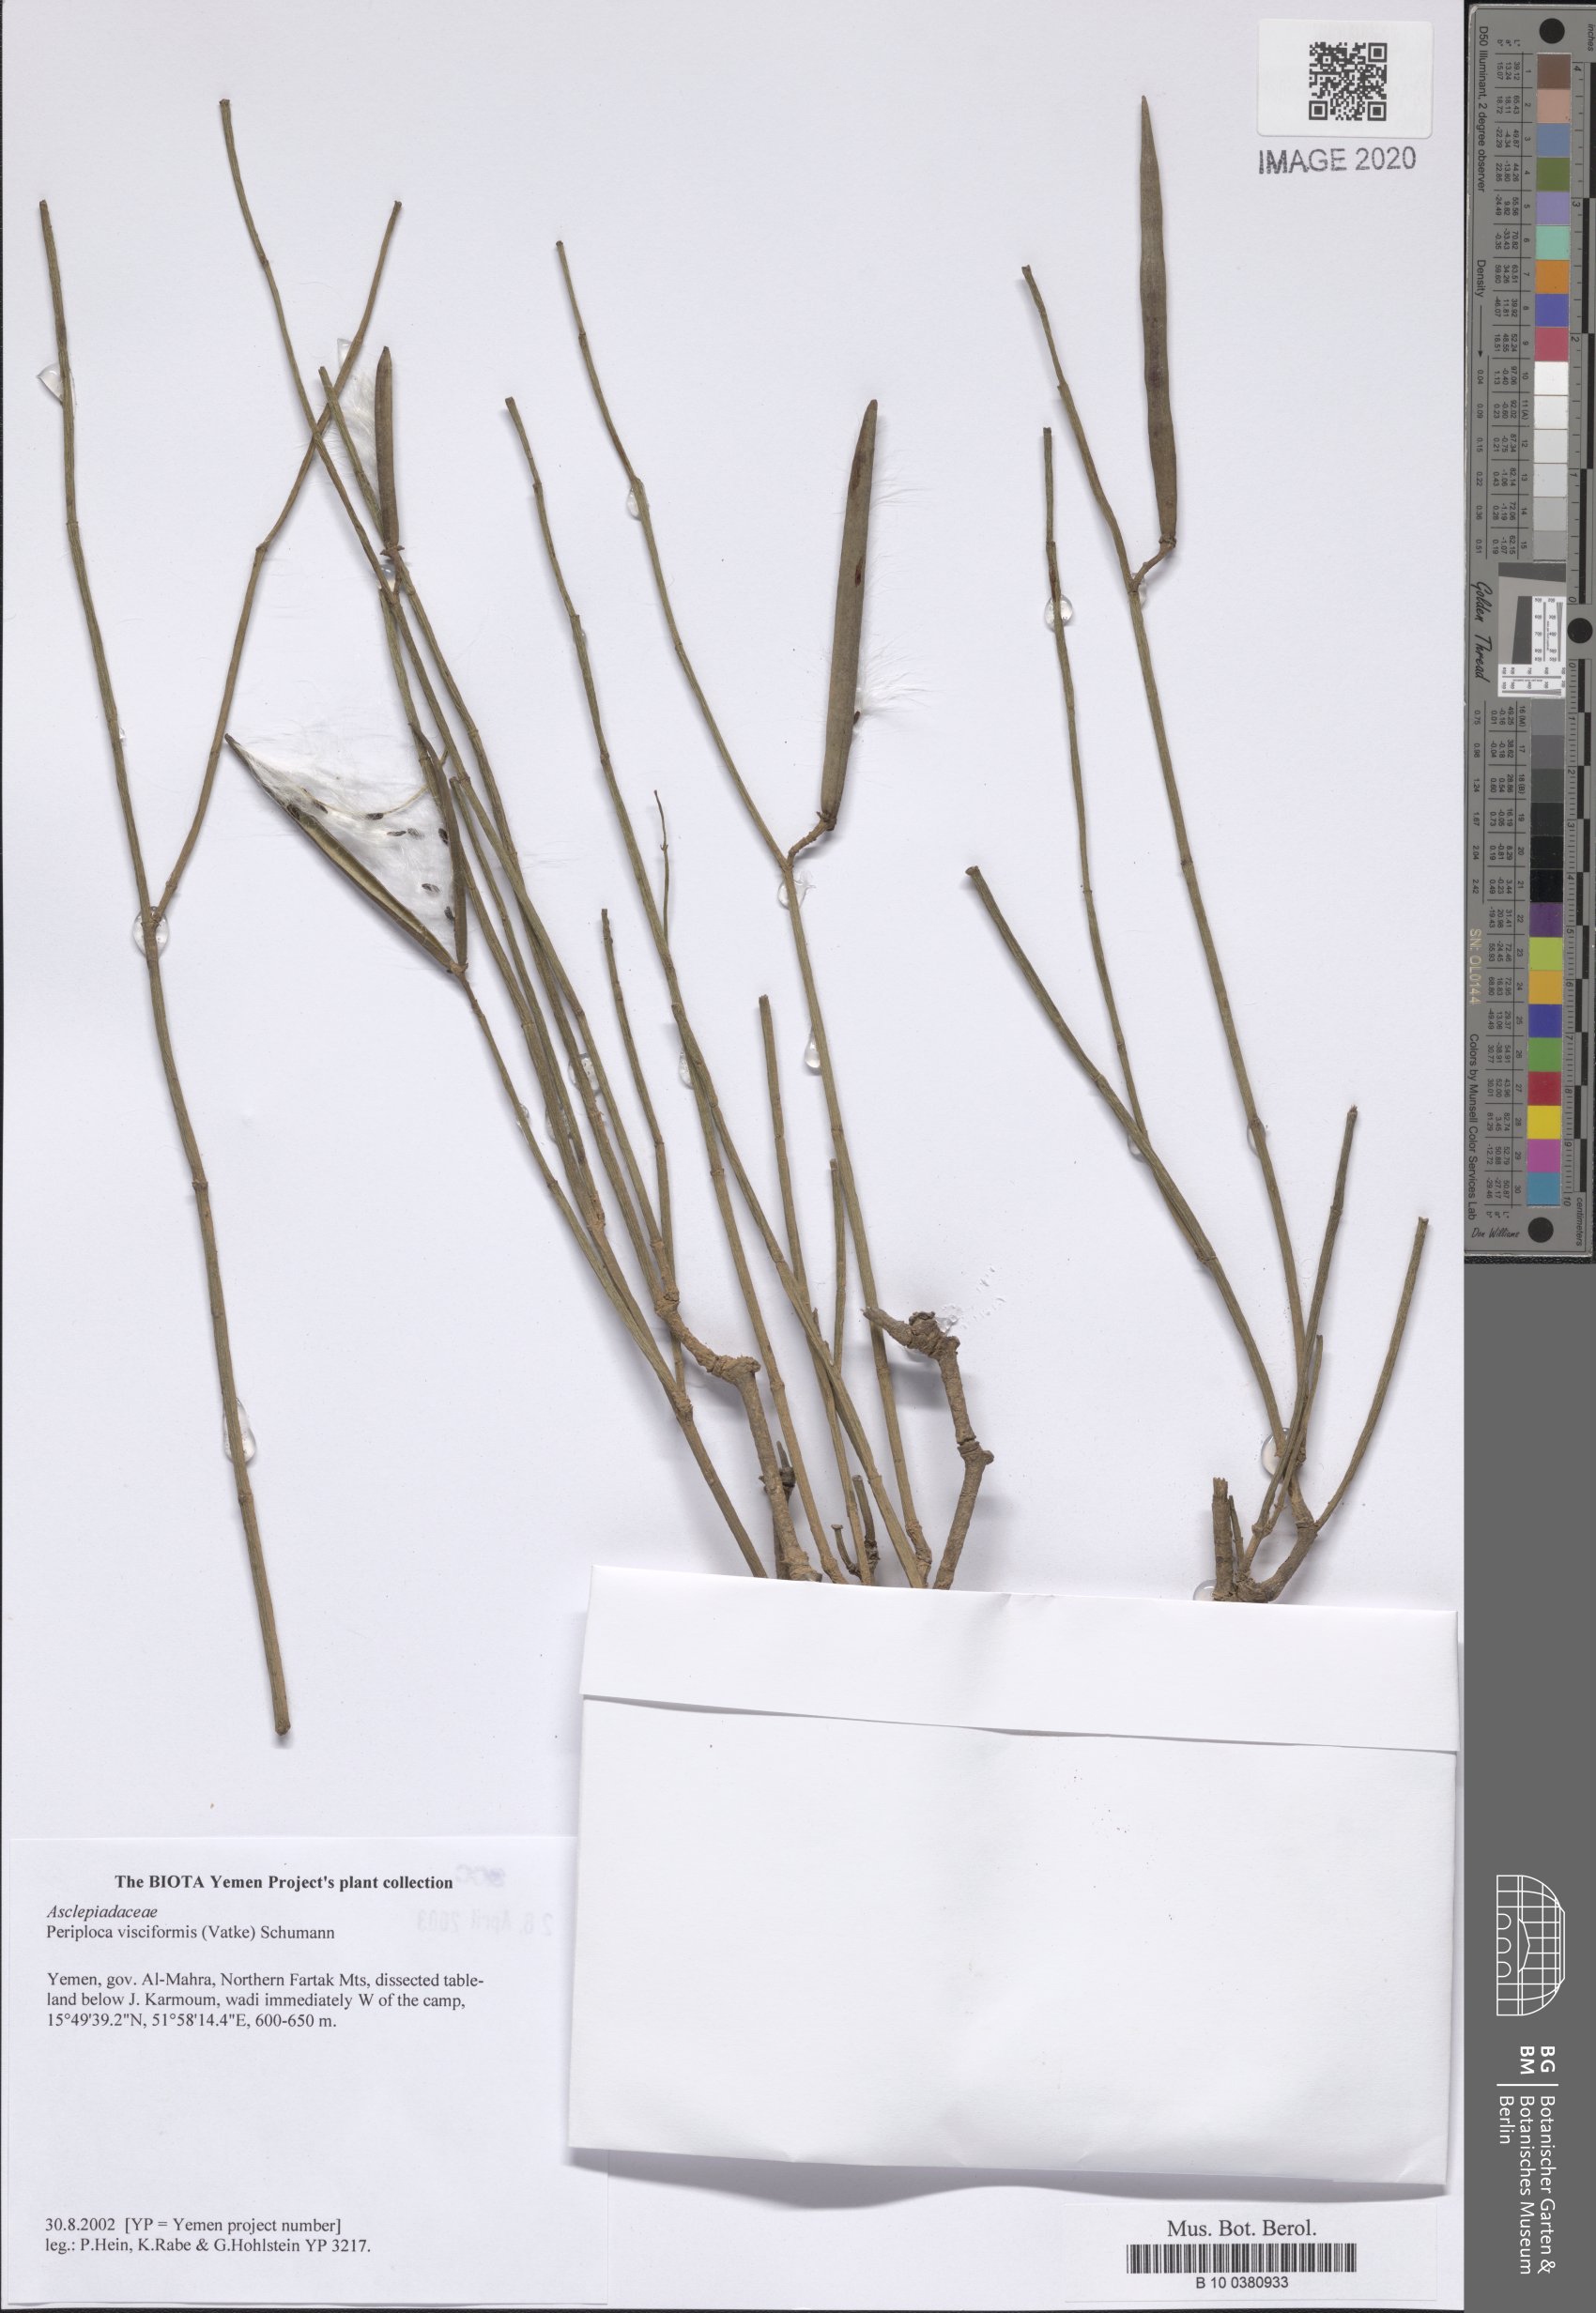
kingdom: Plantae
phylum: Tracheophyta
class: Magnoliopsida
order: Gentianales
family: Apocynaceae
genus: Periploca
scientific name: Periploca visciformis
